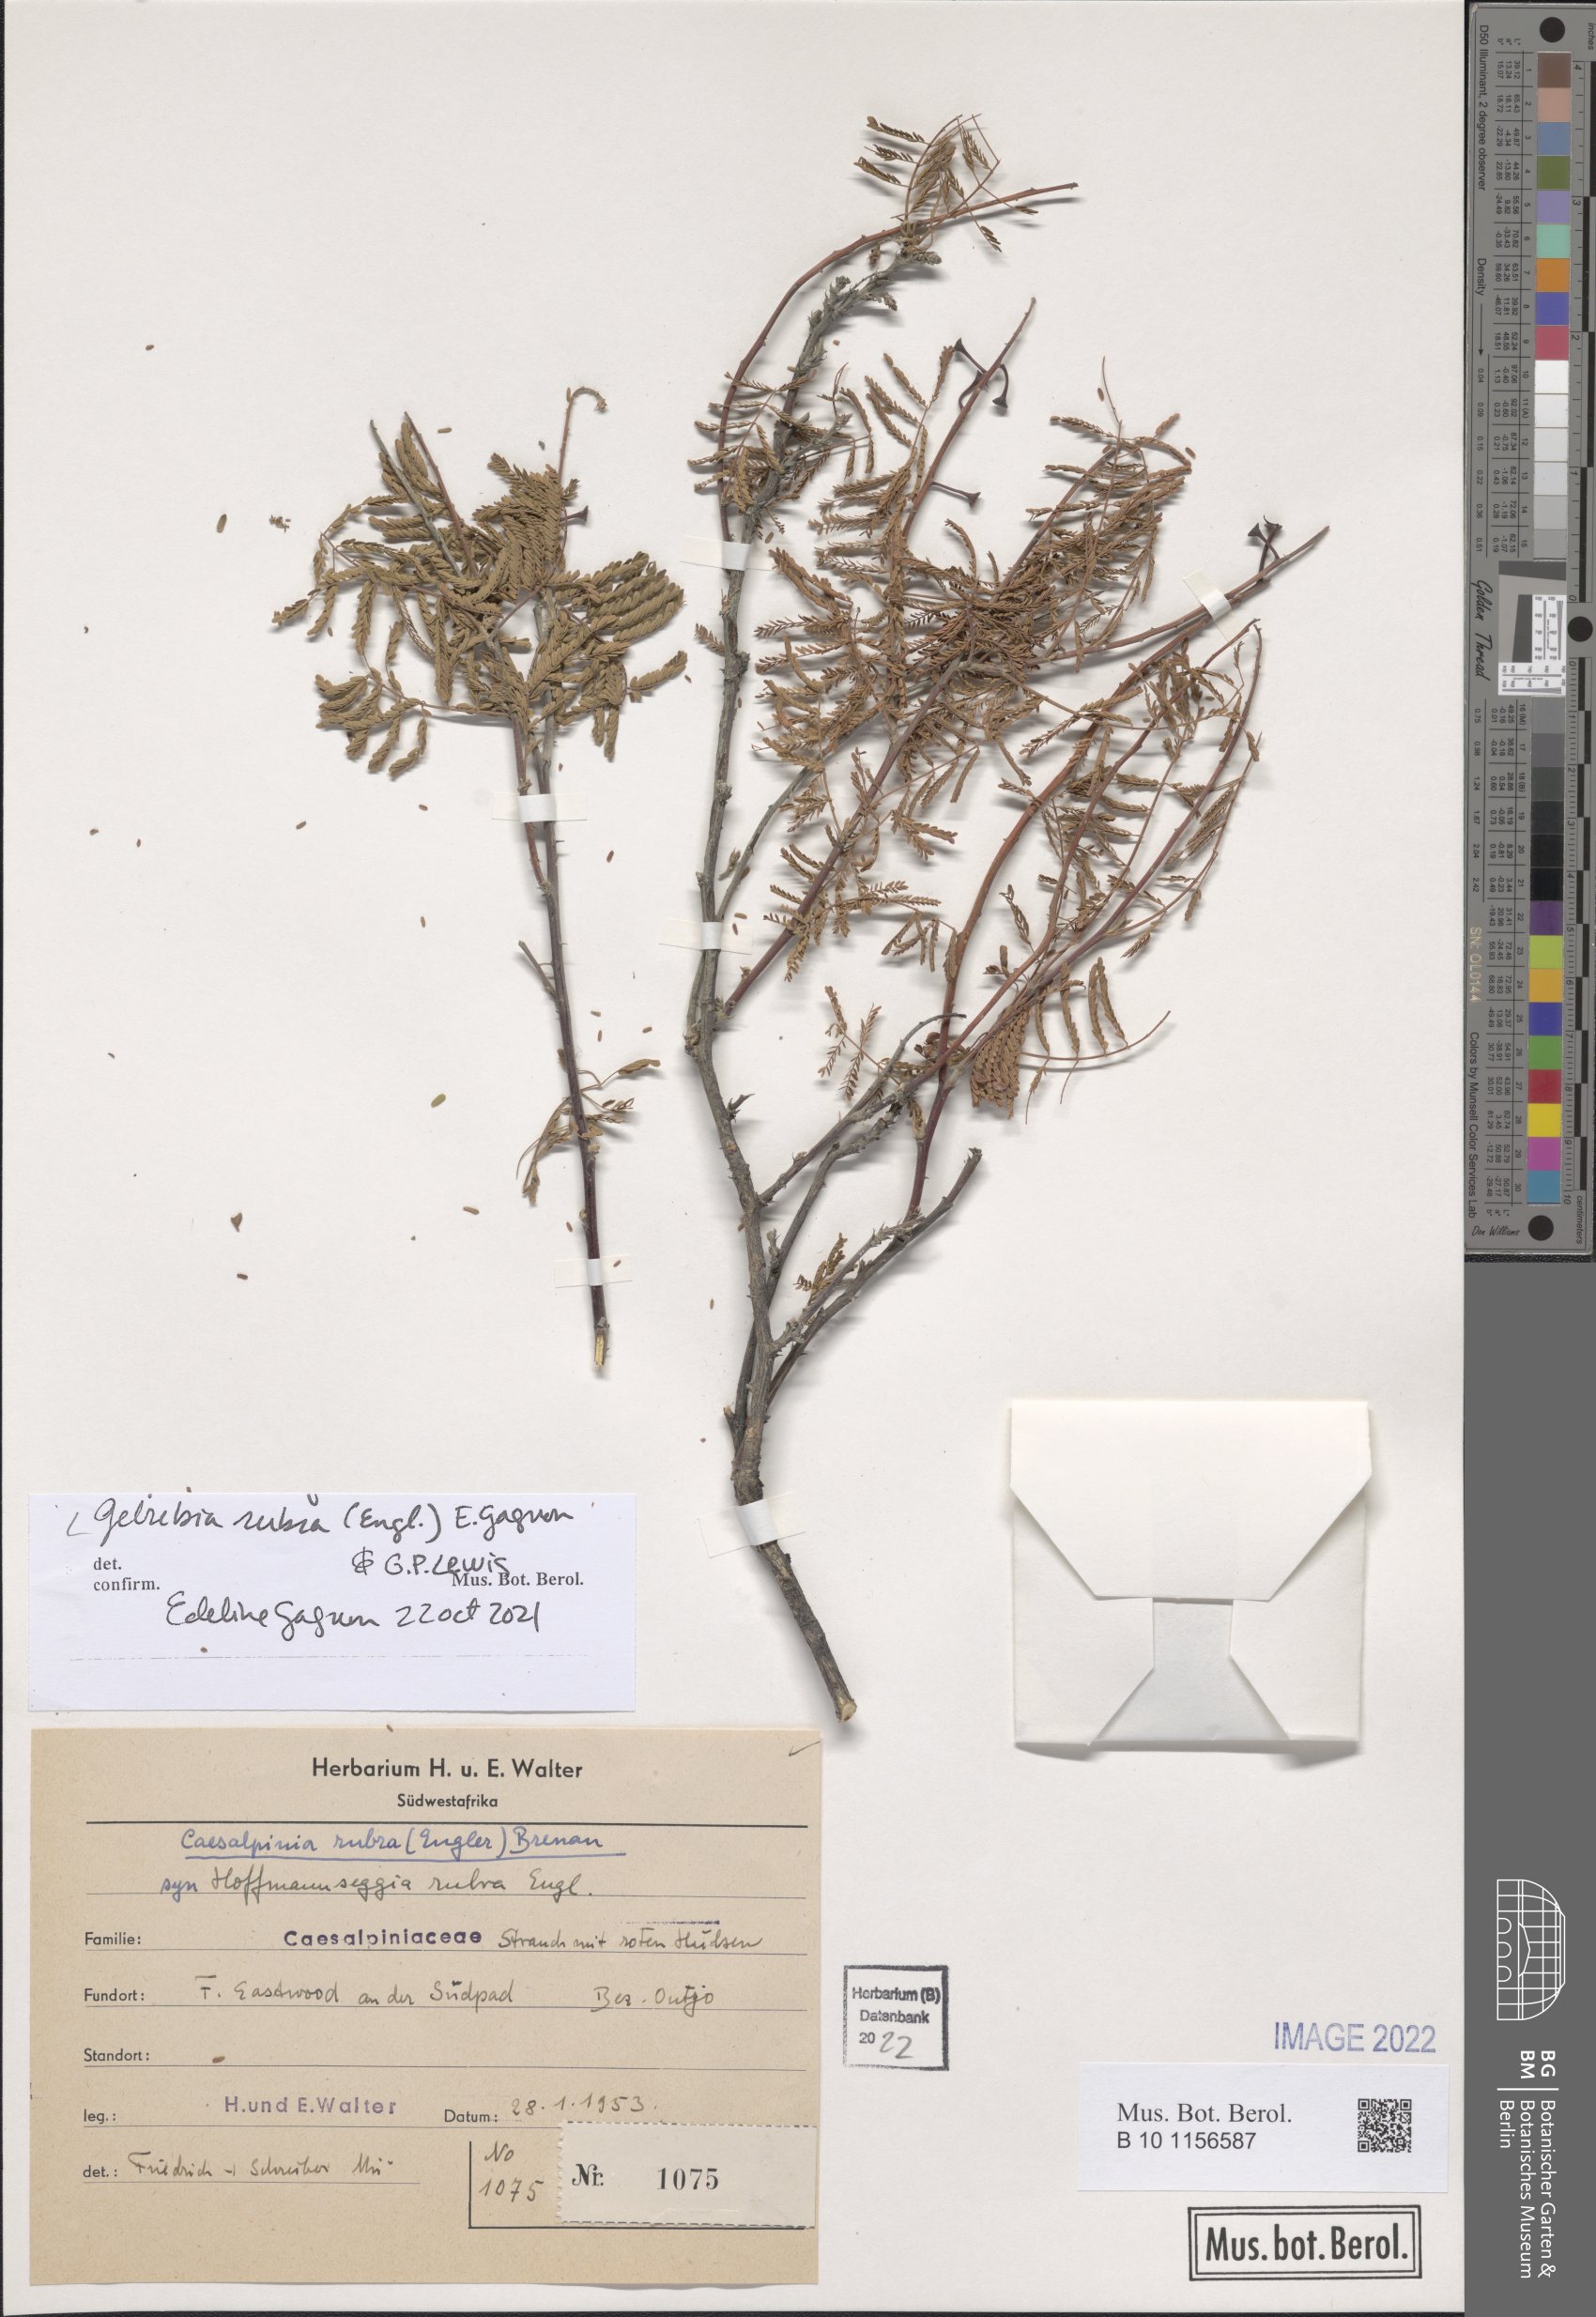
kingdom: Plantae
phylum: Tracheophyta
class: Magnoliopsida
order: Fabales
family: Fabaceae
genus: Gelrebia
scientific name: Gelrebia rubra
